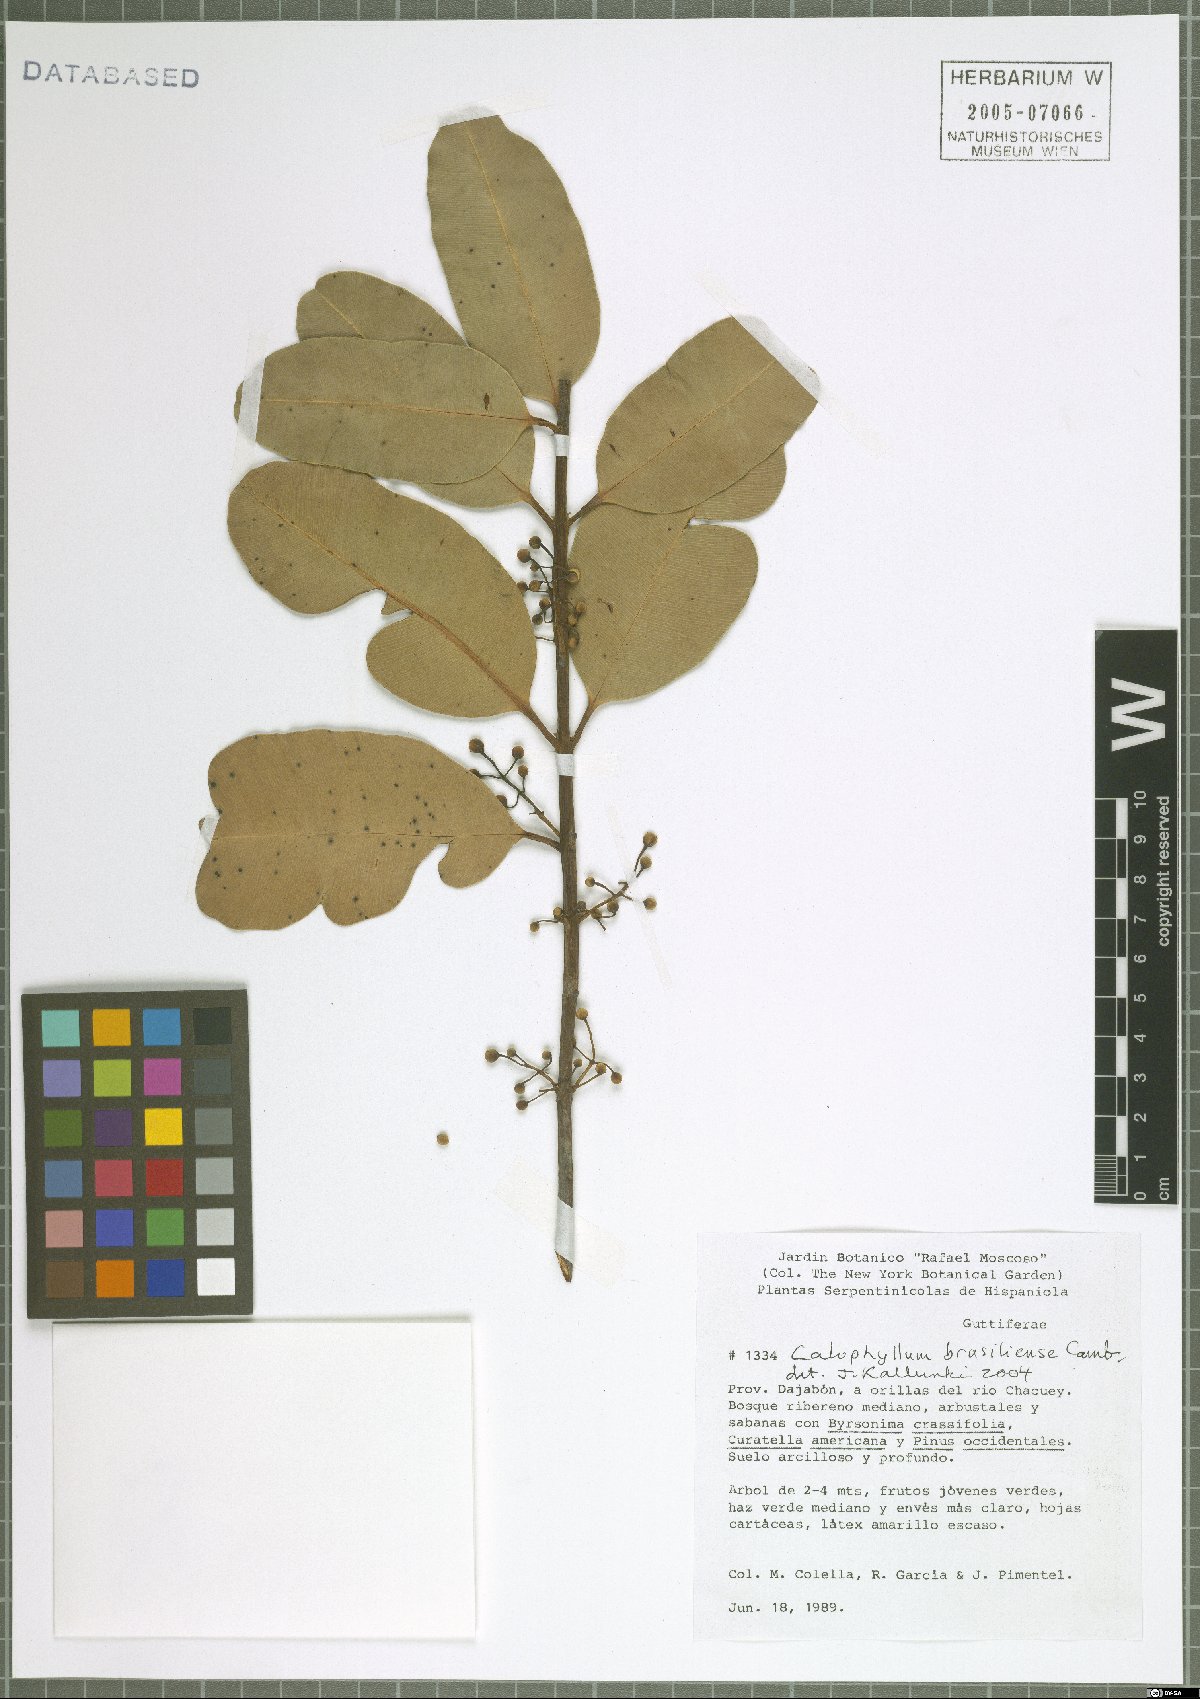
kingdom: Plantae
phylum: Tracheophyta
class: Magnoliopsida
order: Malpighiales
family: Calophyllaceae
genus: Calophyllum
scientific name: Calophyllum brasiliense
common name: Santa maria
